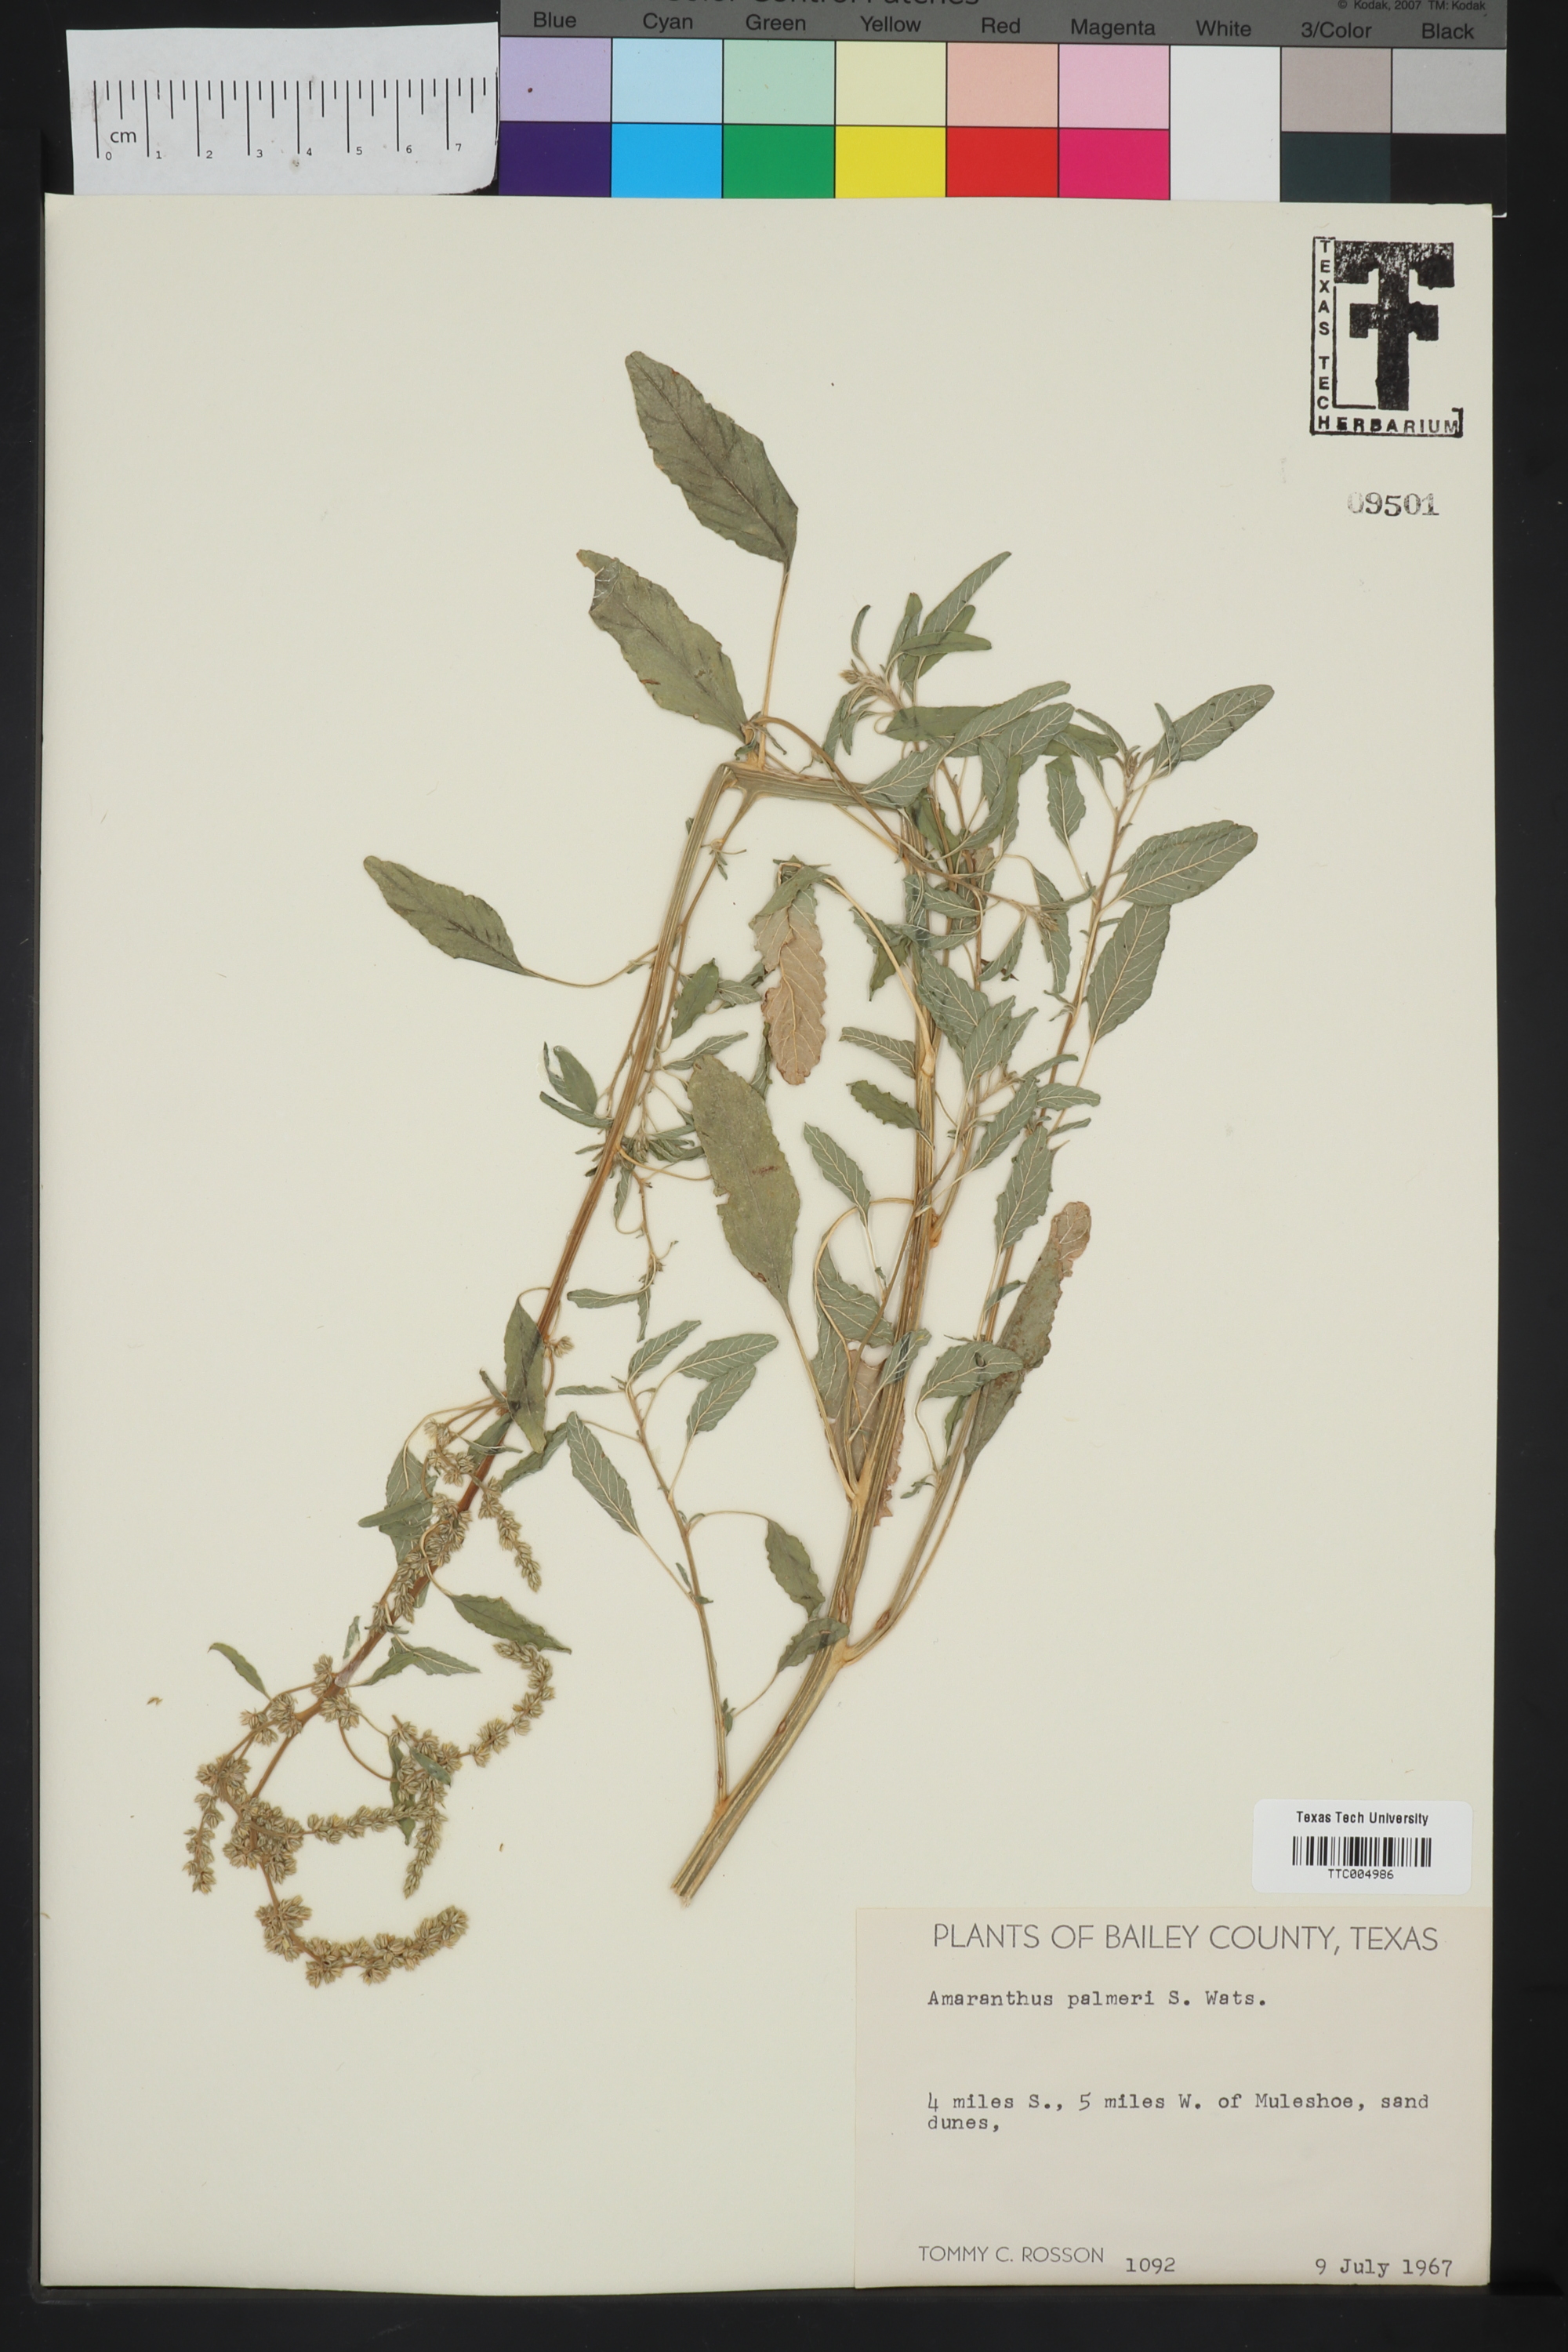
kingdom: Plantae
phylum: Tracheophyta
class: Magnoliopsida
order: Caryophyllales
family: Amaranthaceae
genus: Amaranthus
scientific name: Amaranthus palmeri
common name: Dioecious amaranth
